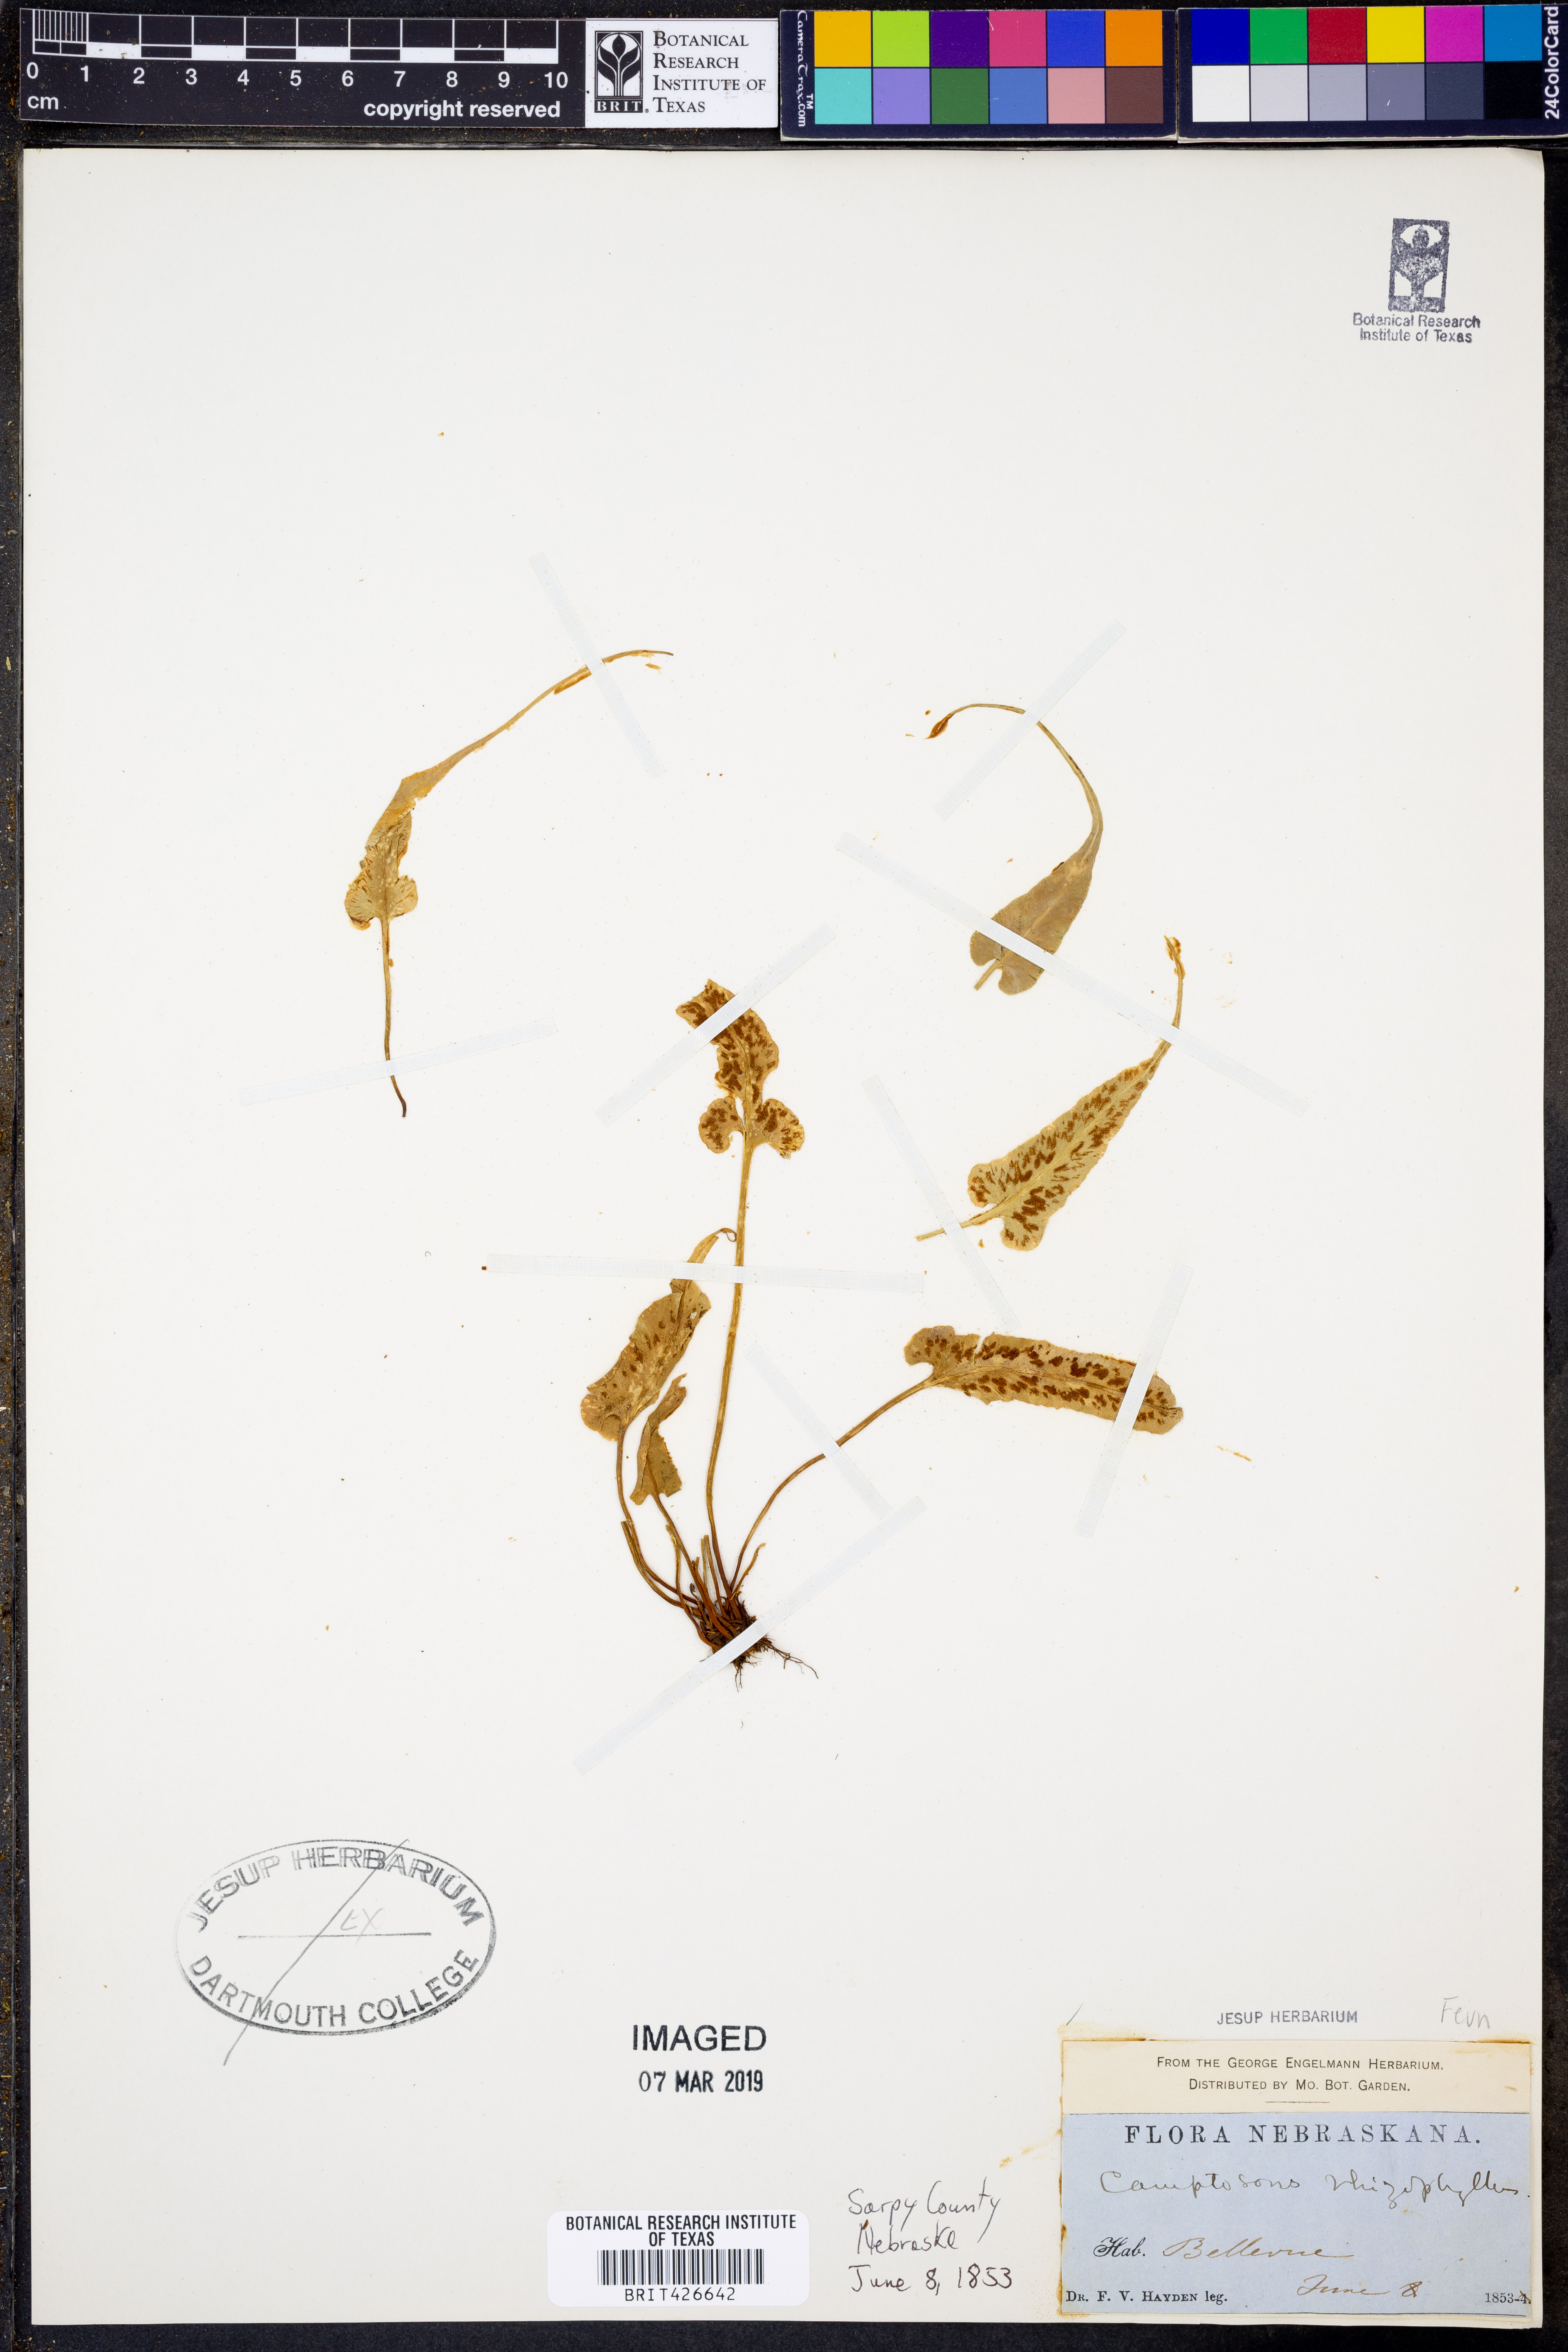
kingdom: Plantae
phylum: Tracheophyta
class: Polypodiopsida
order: Polypodiales
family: Aspleniaceae
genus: Asplenium
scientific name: Asplenium rhizophyllum
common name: Walking fern
